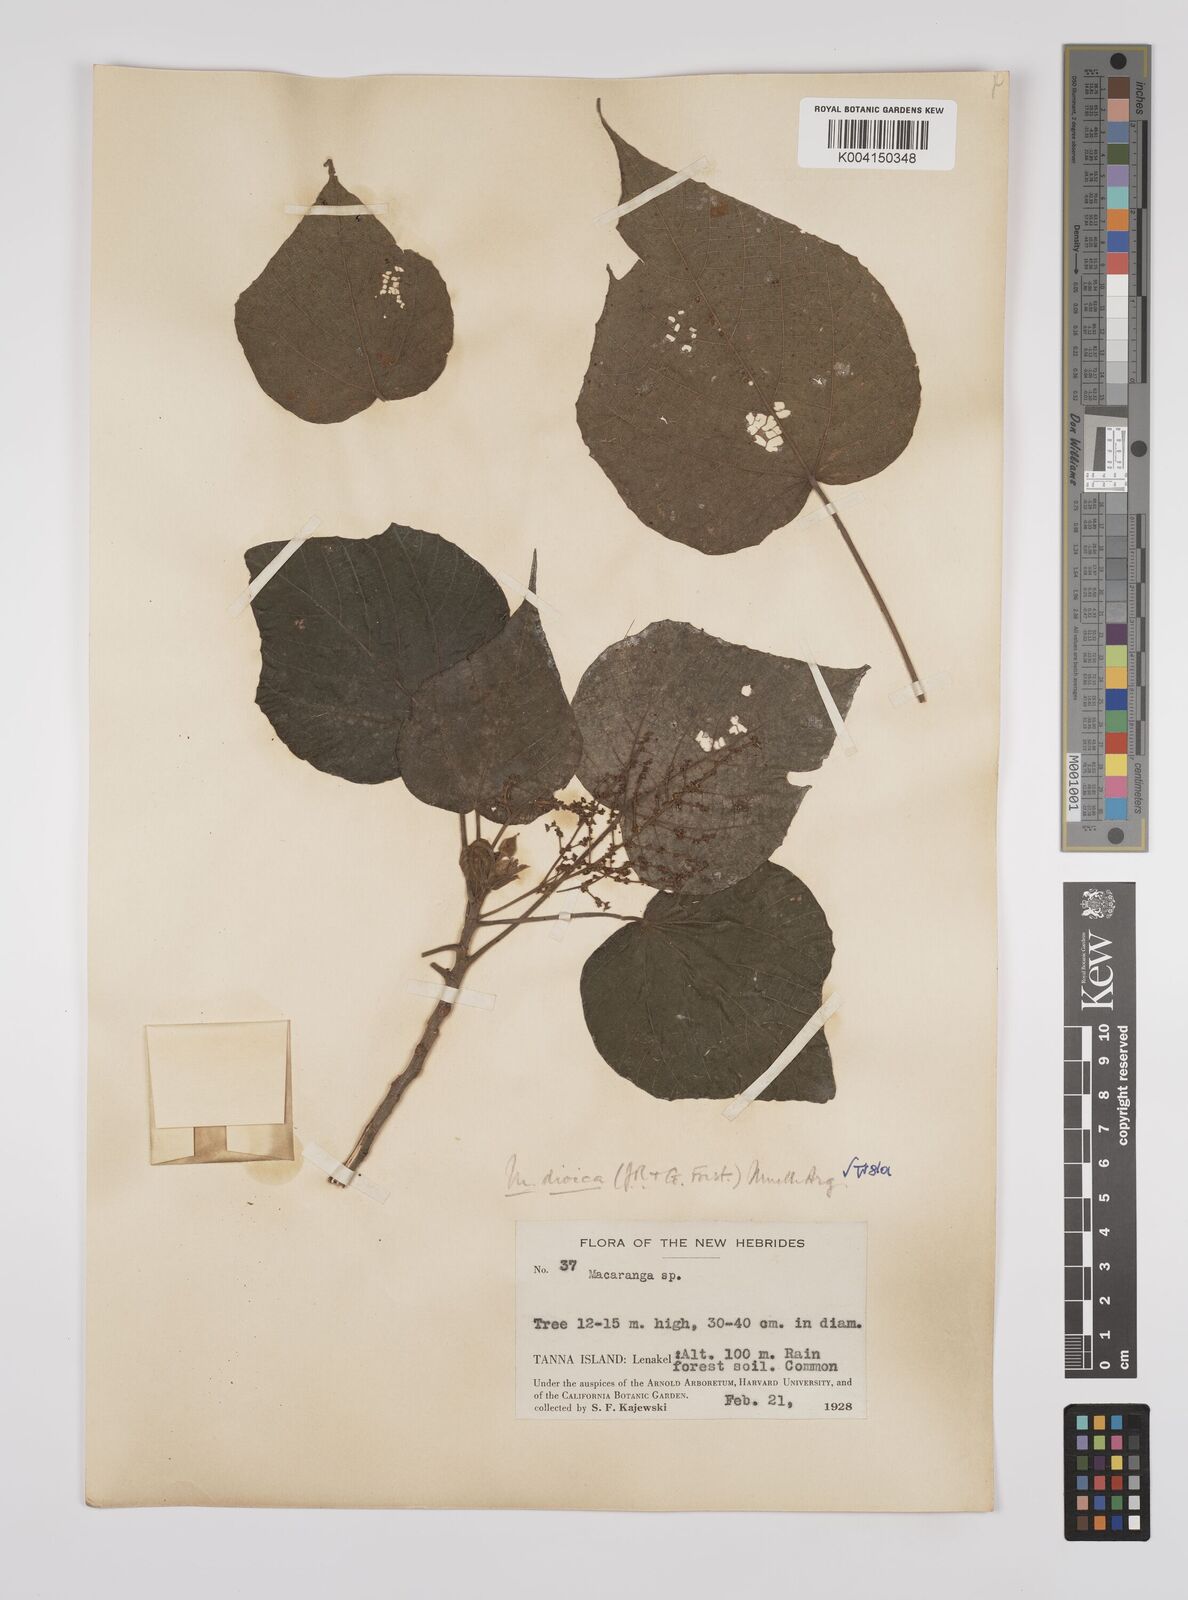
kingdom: Plantae
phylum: Tracheophyta
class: Magnoliopsida
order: Malpighiales
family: Euphorbiaceae
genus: Macaranga
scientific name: Macaranga dioica
